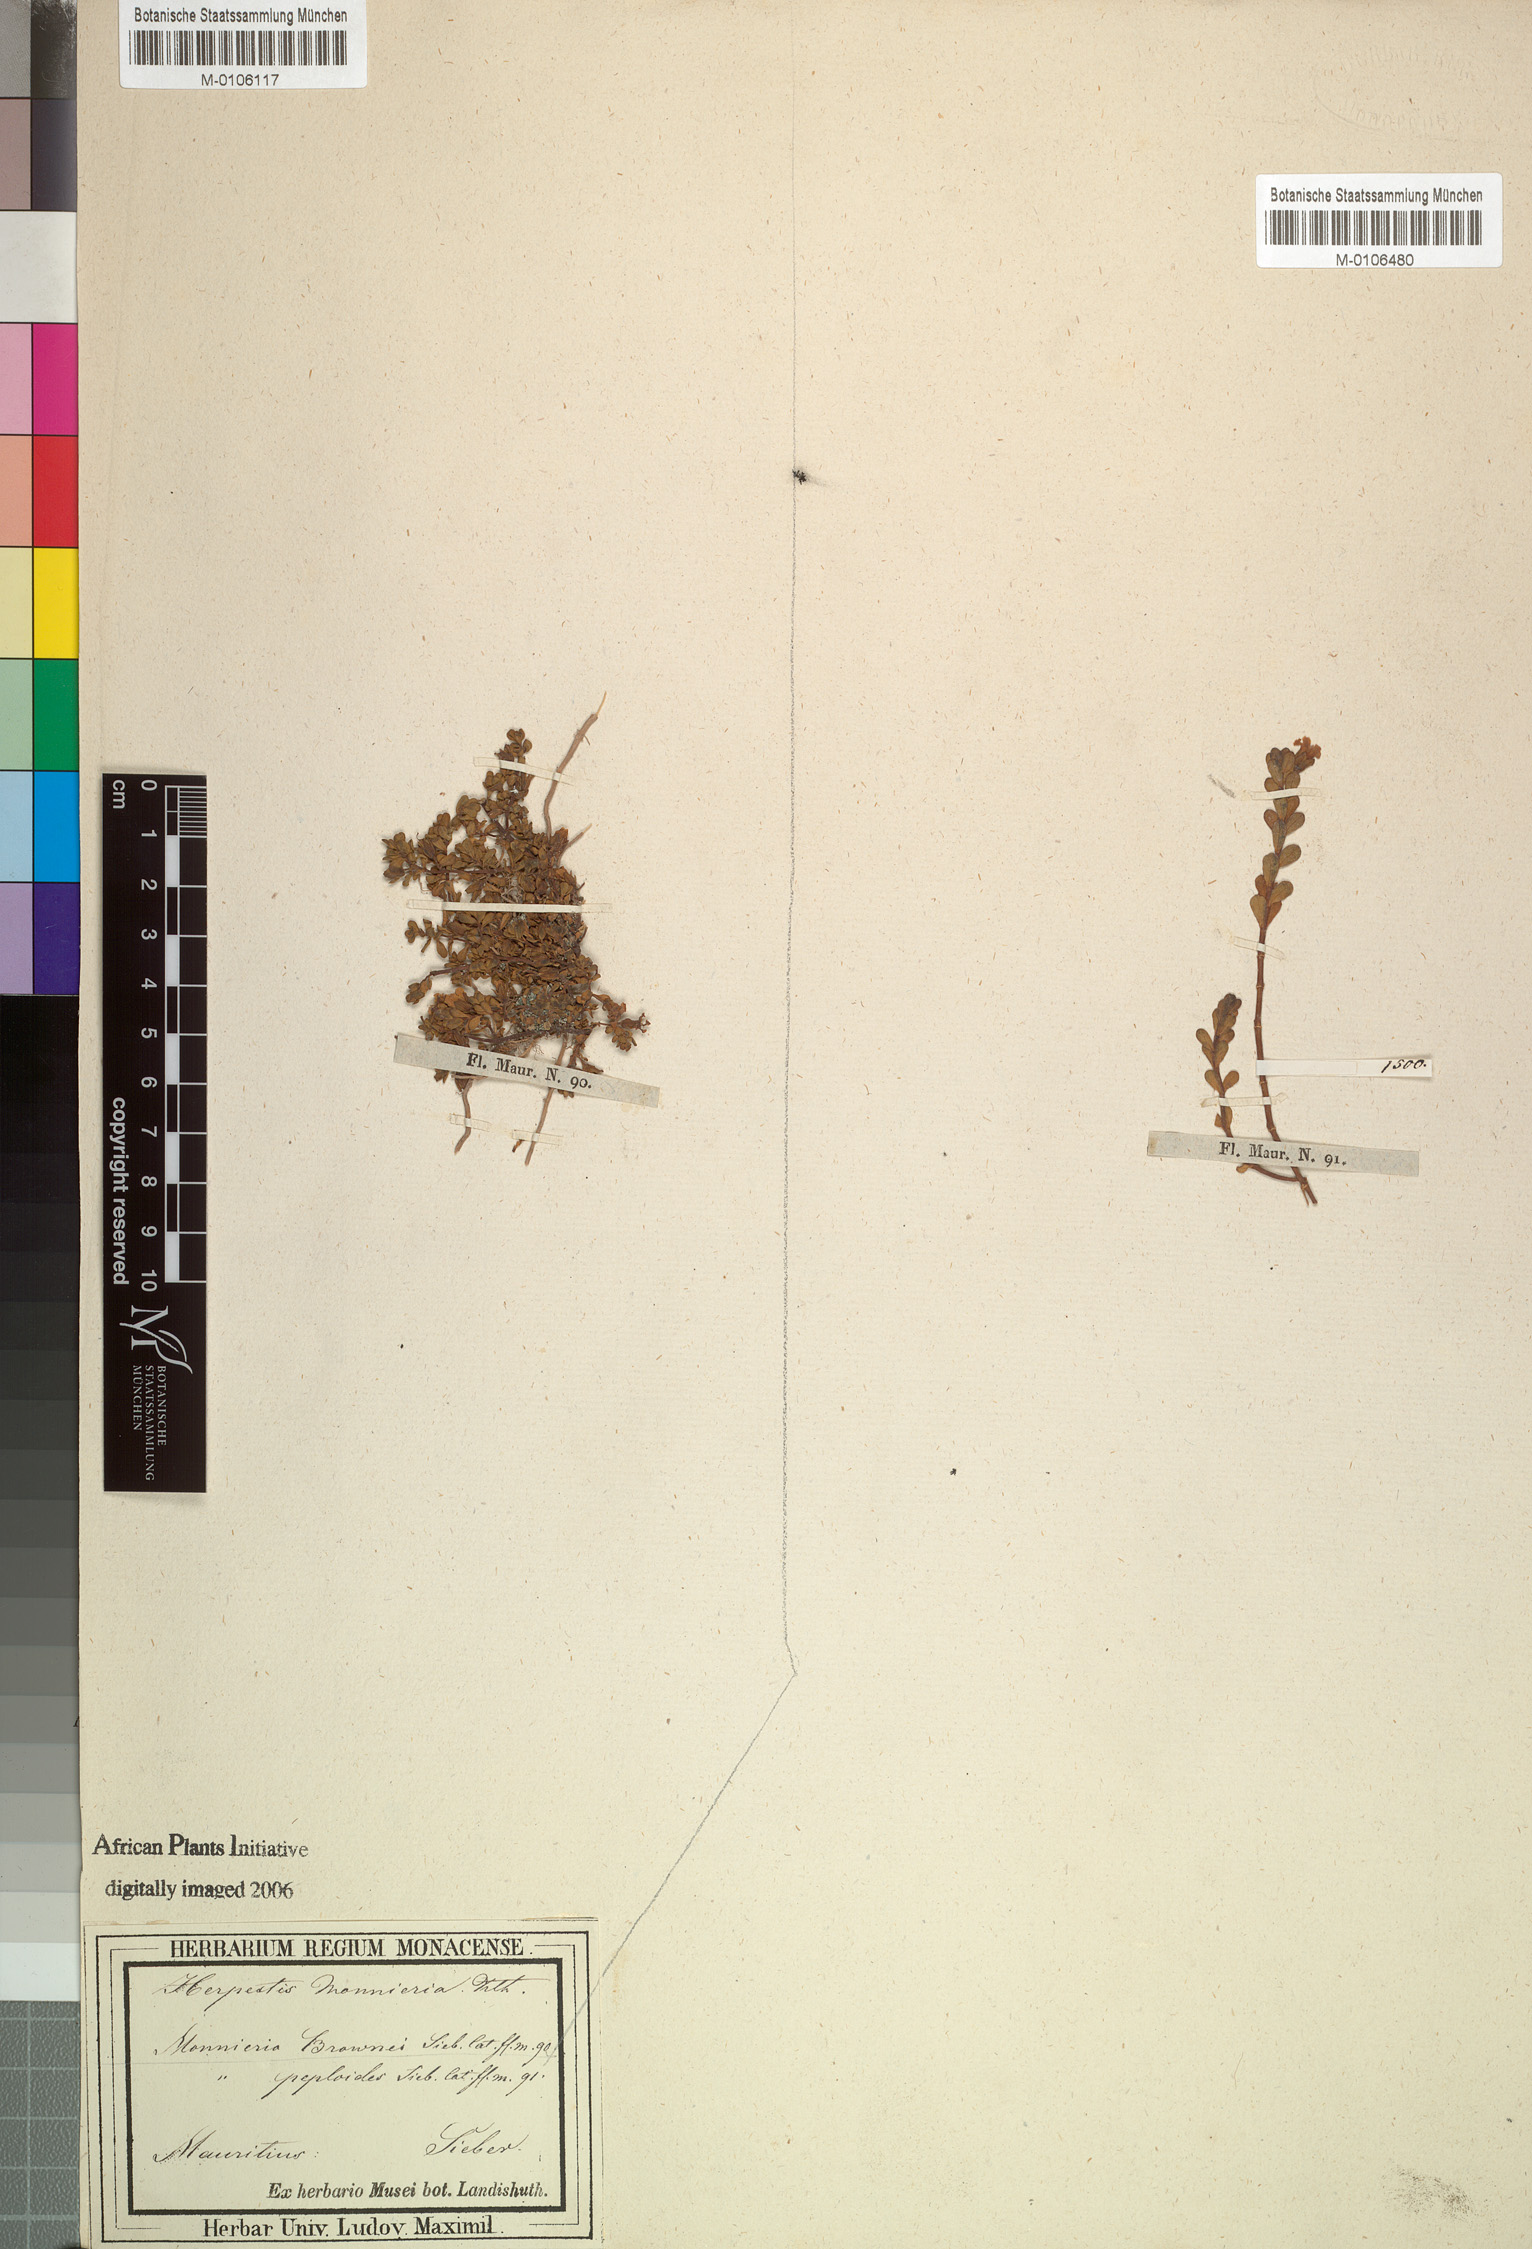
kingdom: Plantae
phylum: Tracheophyta
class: Magnoliopsida
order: Lamiales
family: Plantaginaceae
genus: Bacopa
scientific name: Bacopa monnieri
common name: Indian-pennywort
